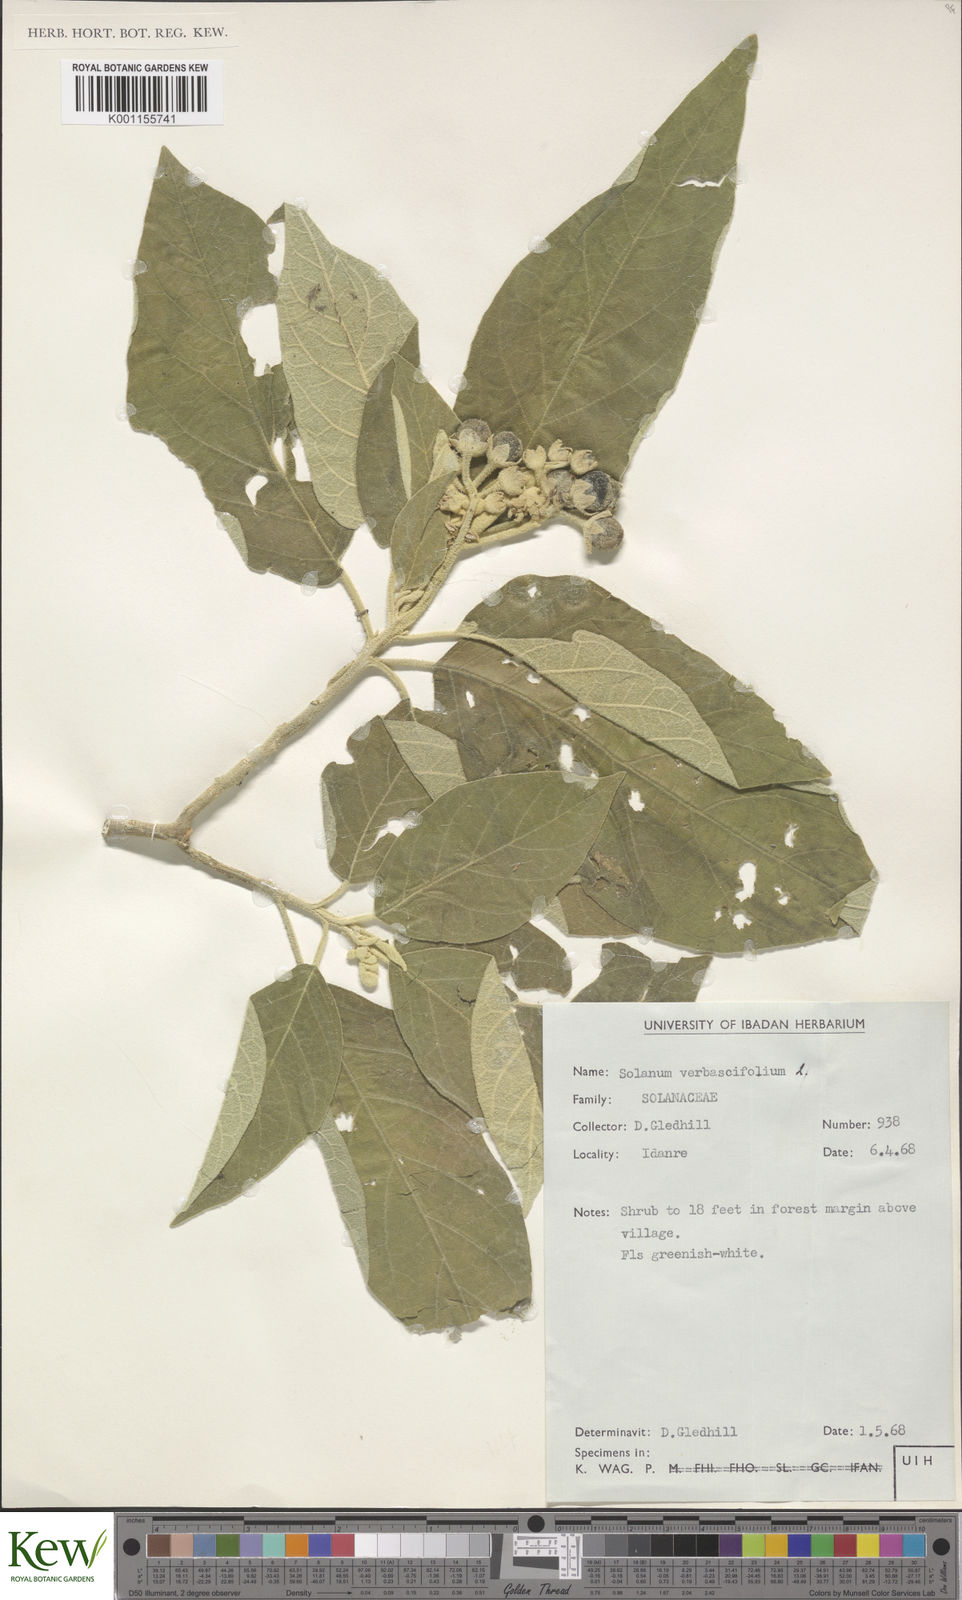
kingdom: Plantae
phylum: Tracheophyta
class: Magnoliopsida
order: Solanales
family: Solanaceae
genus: Solanum
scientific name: Solanum erianthum
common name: Tobacco-tree
